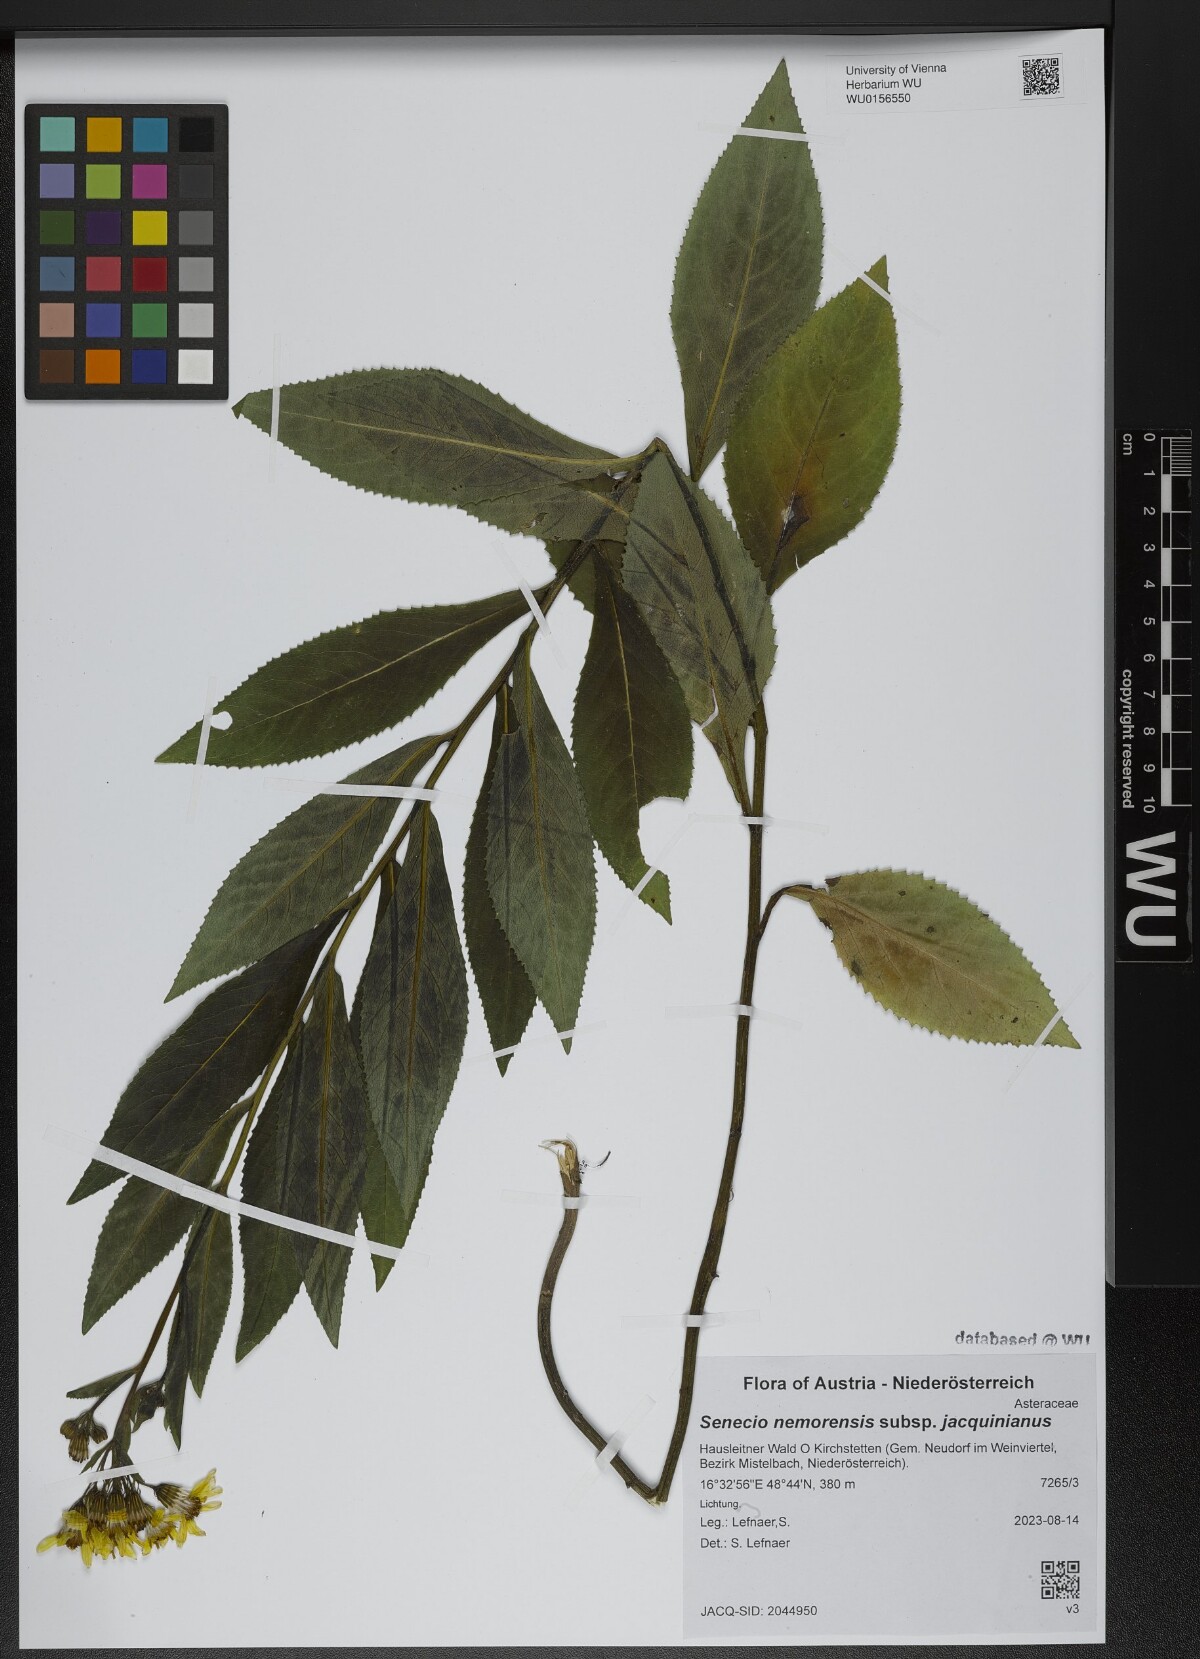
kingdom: Plantae
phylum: Tracheophyta
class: Magnoliopsida
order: Asterales
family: Asteraceae
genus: Senecio
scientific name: Senecio germanicus
